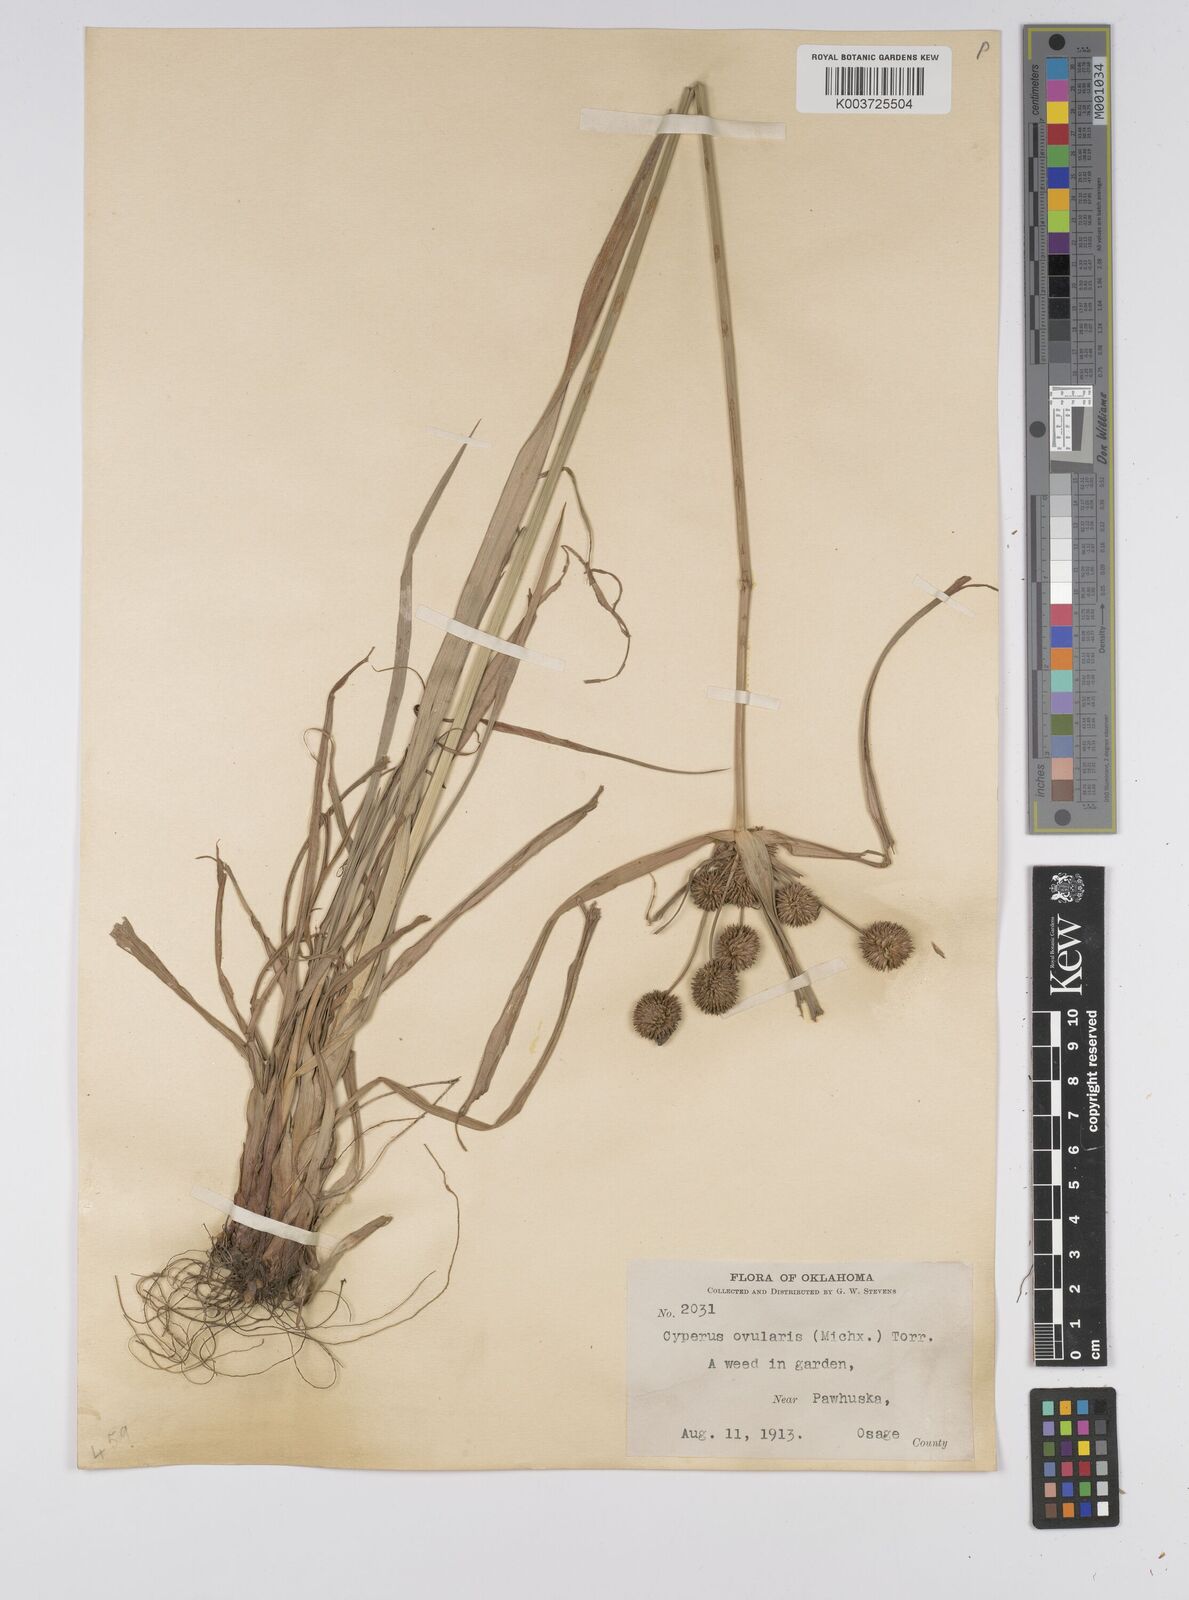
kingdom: Plantae
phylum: Tracheophyta
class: Liliopsida
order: Poales
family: Cyperaceae
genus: Cyperus
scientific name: Cyperus echinatus
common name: Teasel sedge
